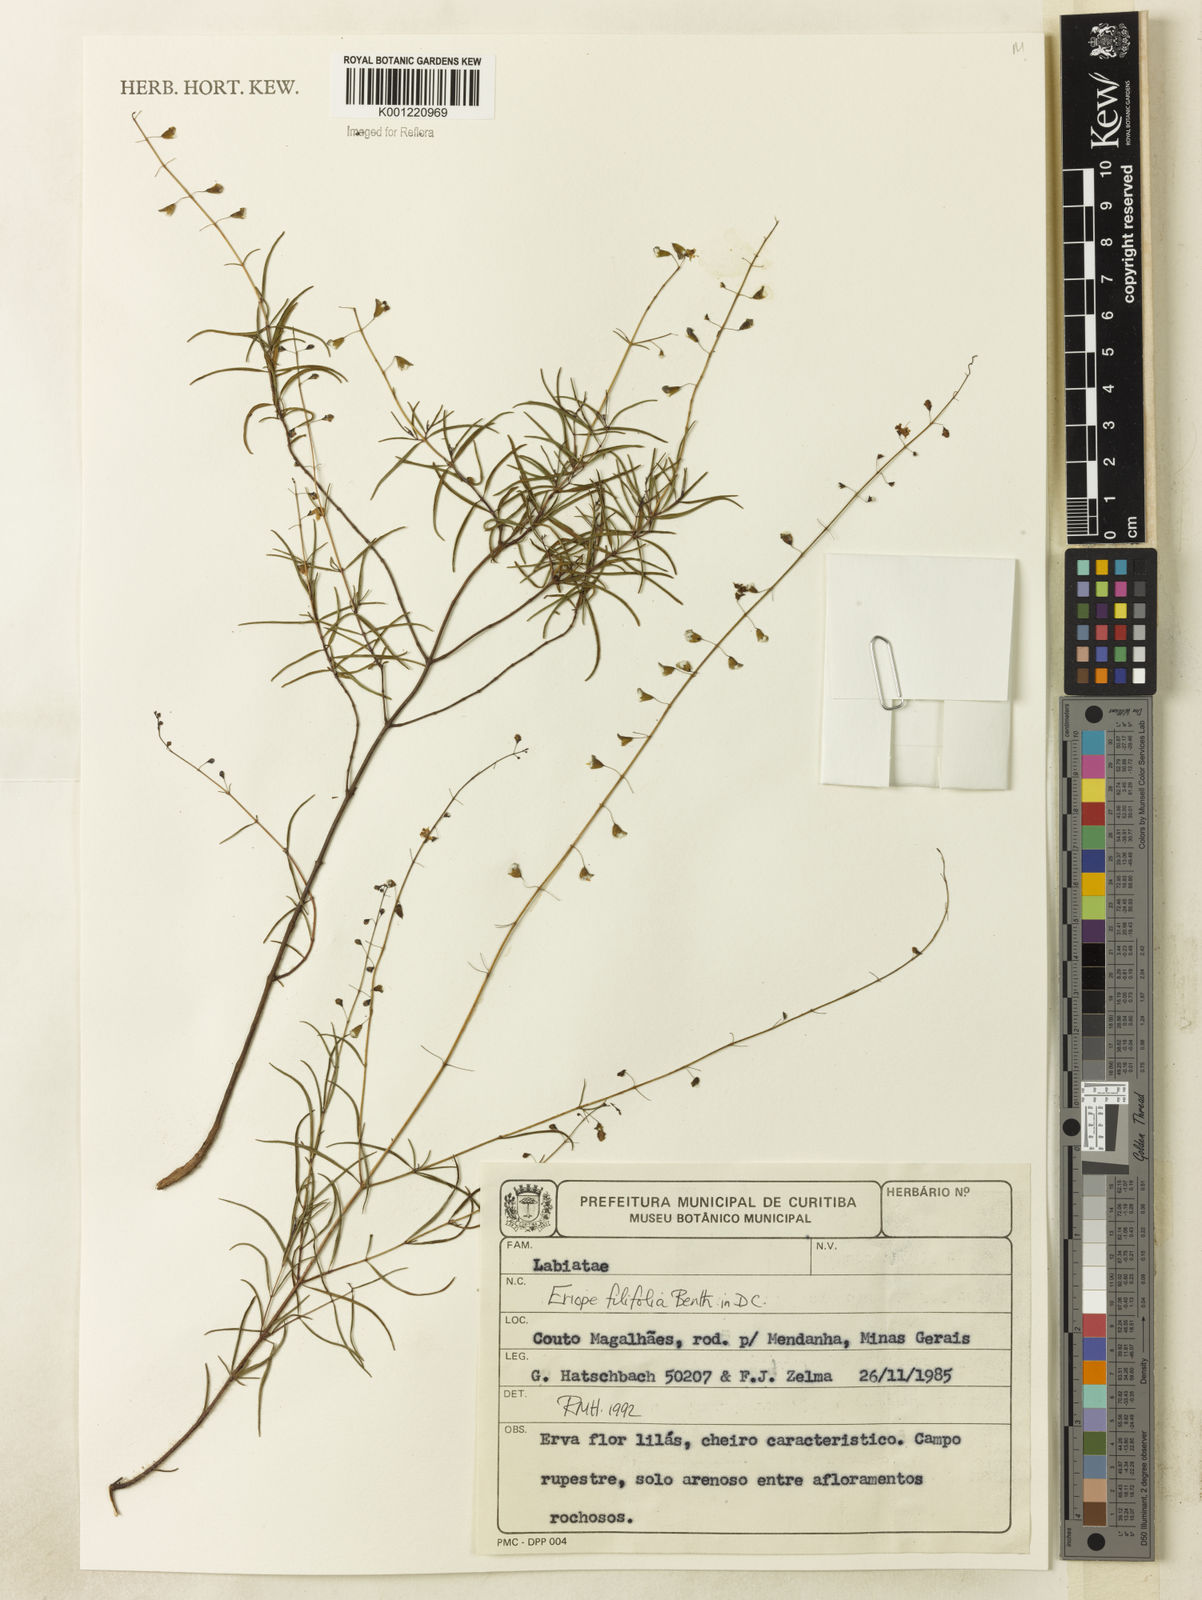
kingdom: Plantae
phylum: Tracheophyta
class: Magnoliopsida
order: Lamiales
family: Lamiaceae
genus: Eriope
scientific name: Eriope filifolia
